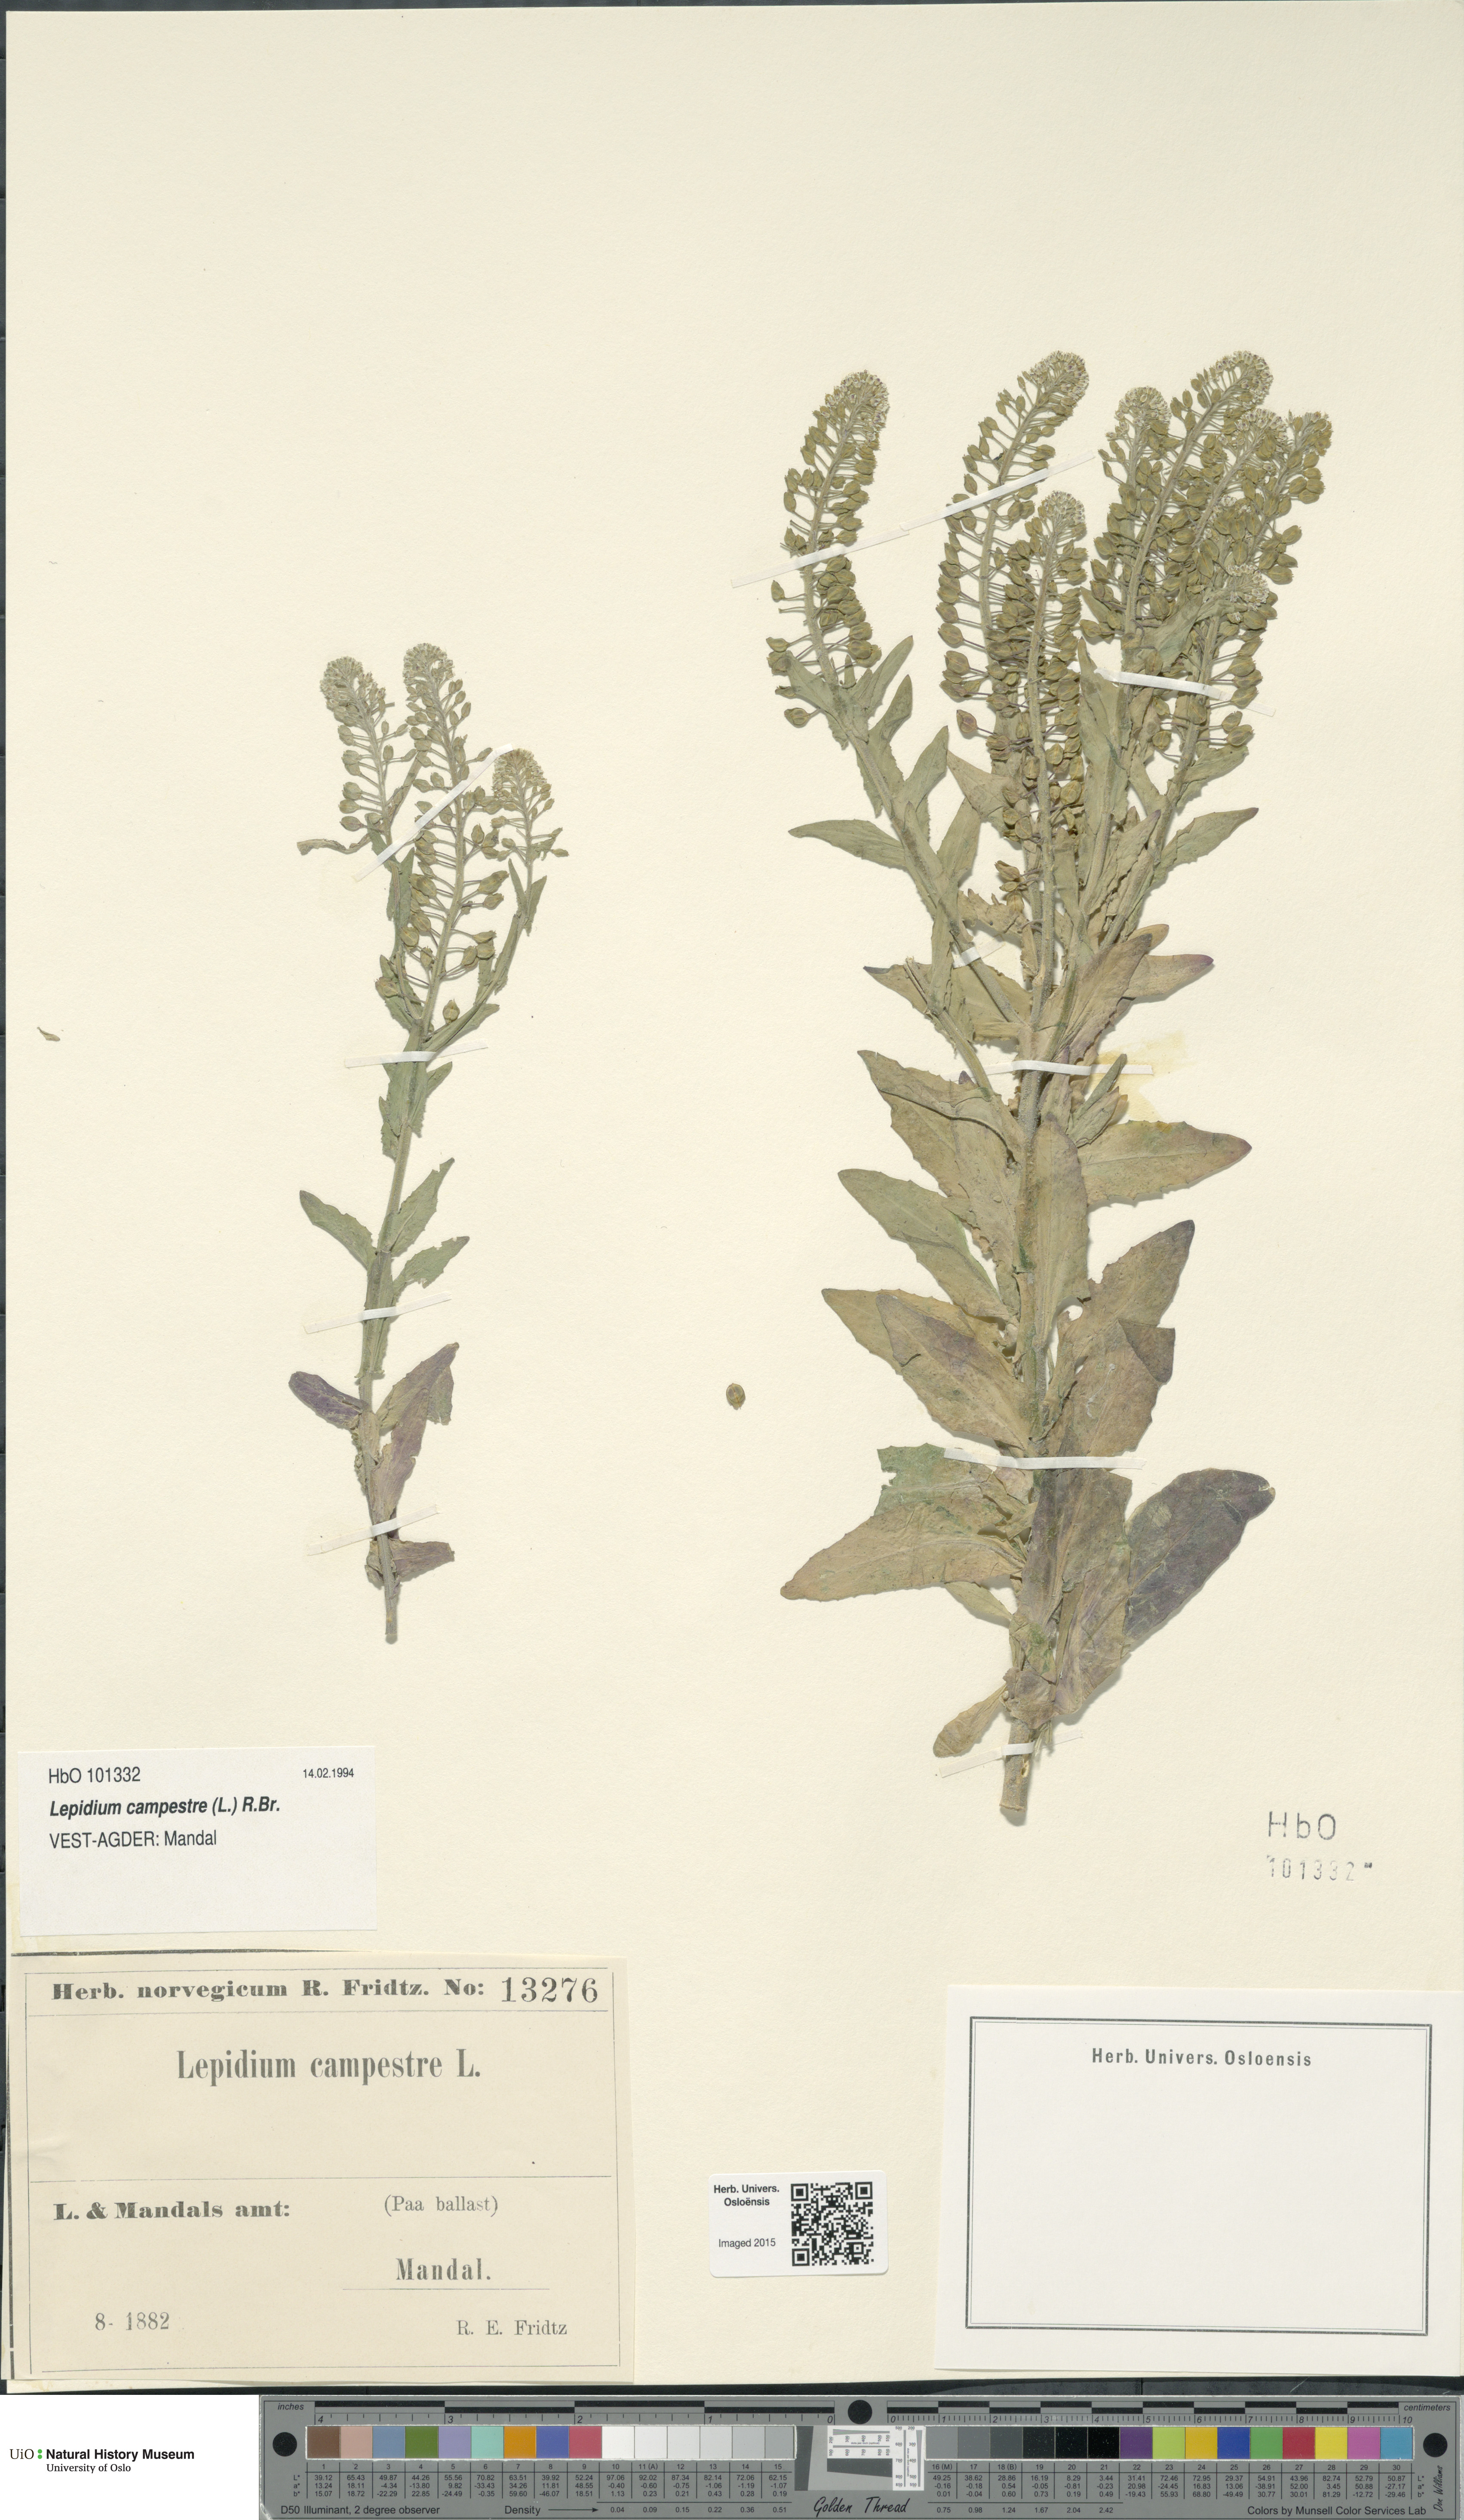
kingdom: Plantae
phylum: Tracheophyta
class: Magnoliopsida
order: Brassicales
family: Brassicaceae
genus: Lepidium
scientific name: Lepidium campestre
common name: Field pepperwort
